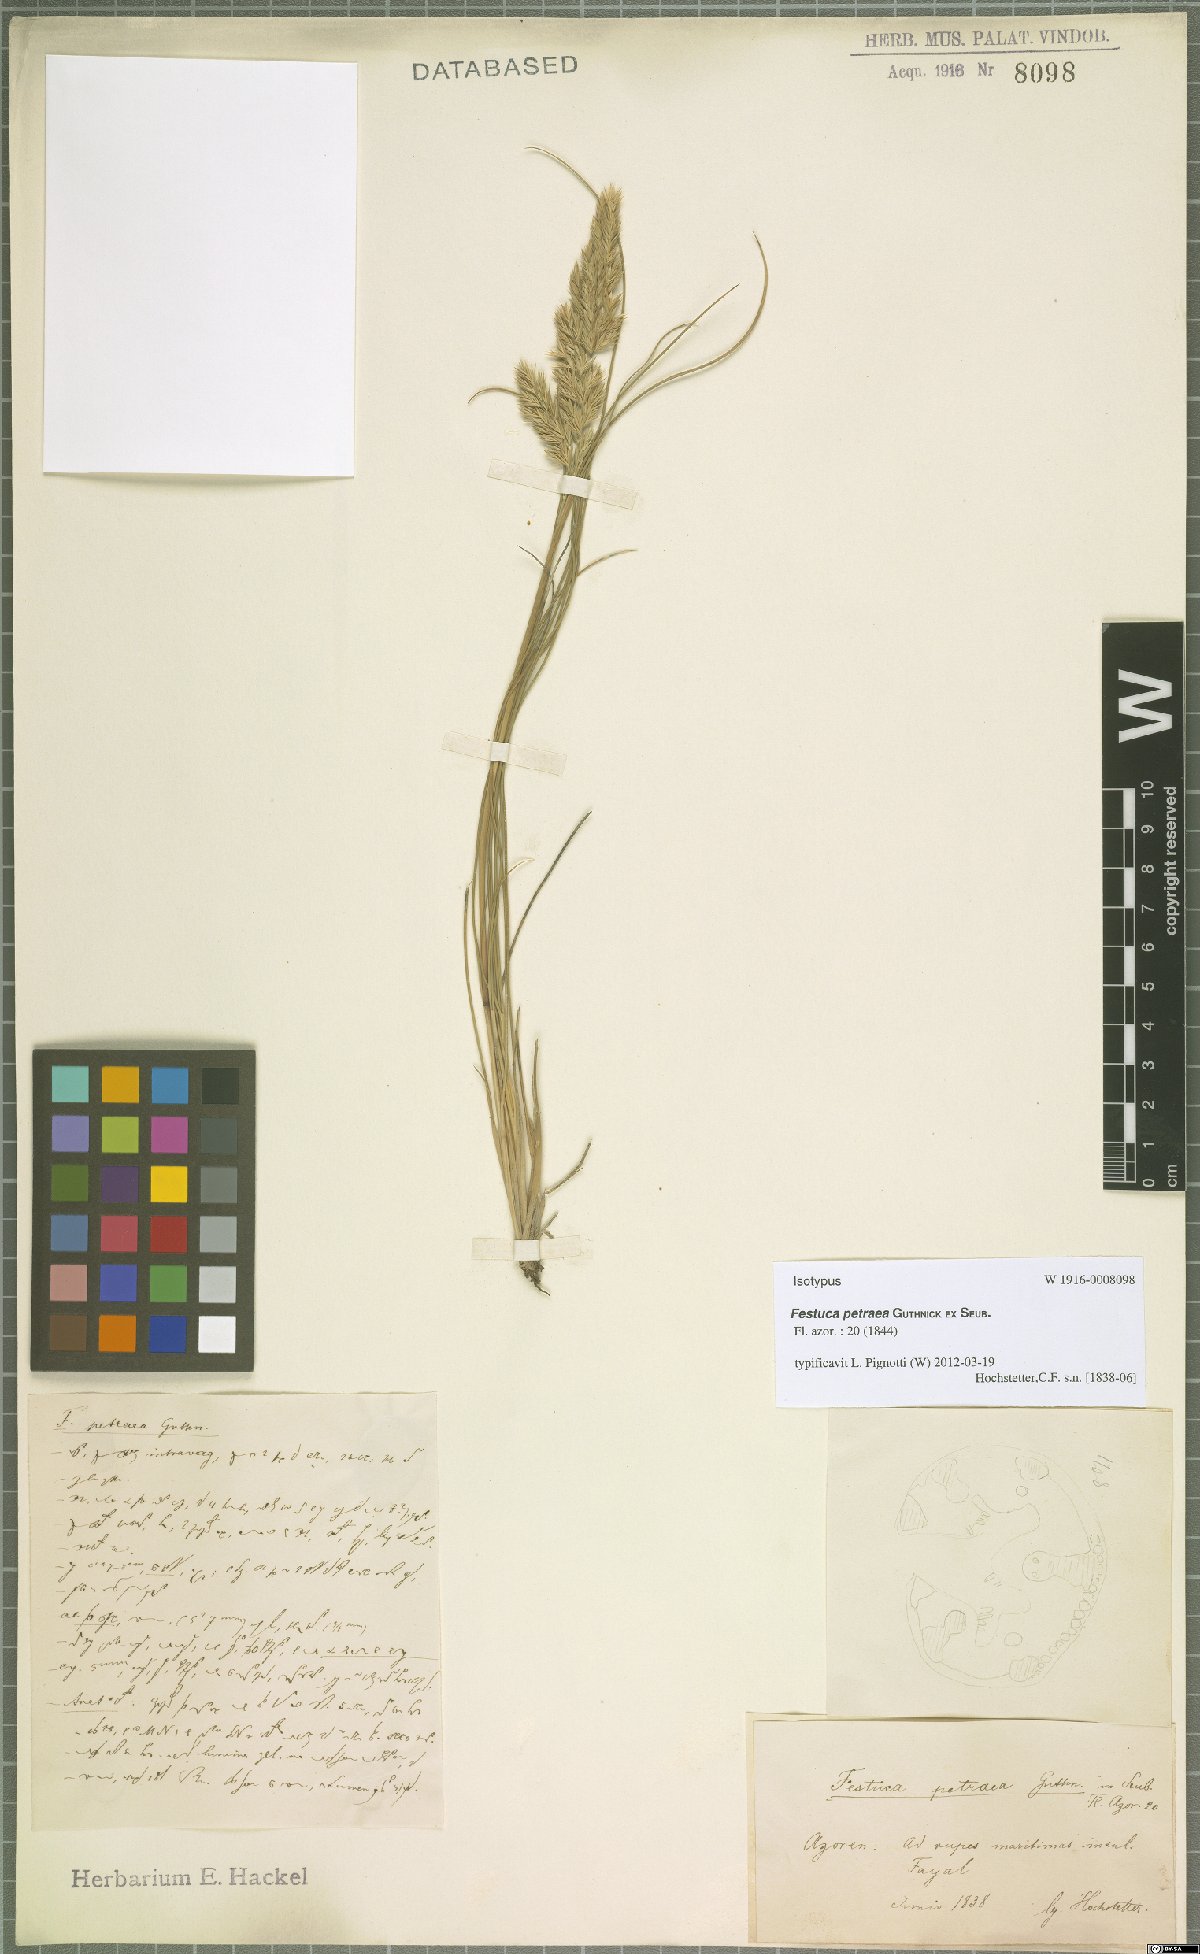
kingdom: Plantae
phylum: Tracheophyta
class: Liliopsida
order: Poales
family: Poaceae
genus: Festuca
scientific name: Festuca petraea
